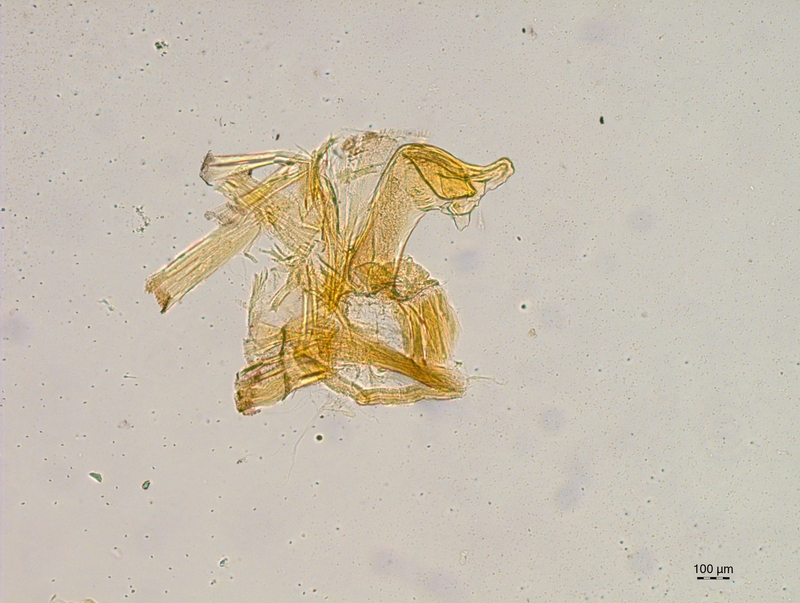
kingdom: Animalia
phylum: Arthropoda
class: Diplopoda
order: Chordeumatida
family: Craspedosomatidae
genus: Craspedosoma
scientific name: Craspedosoma rawlinsii
